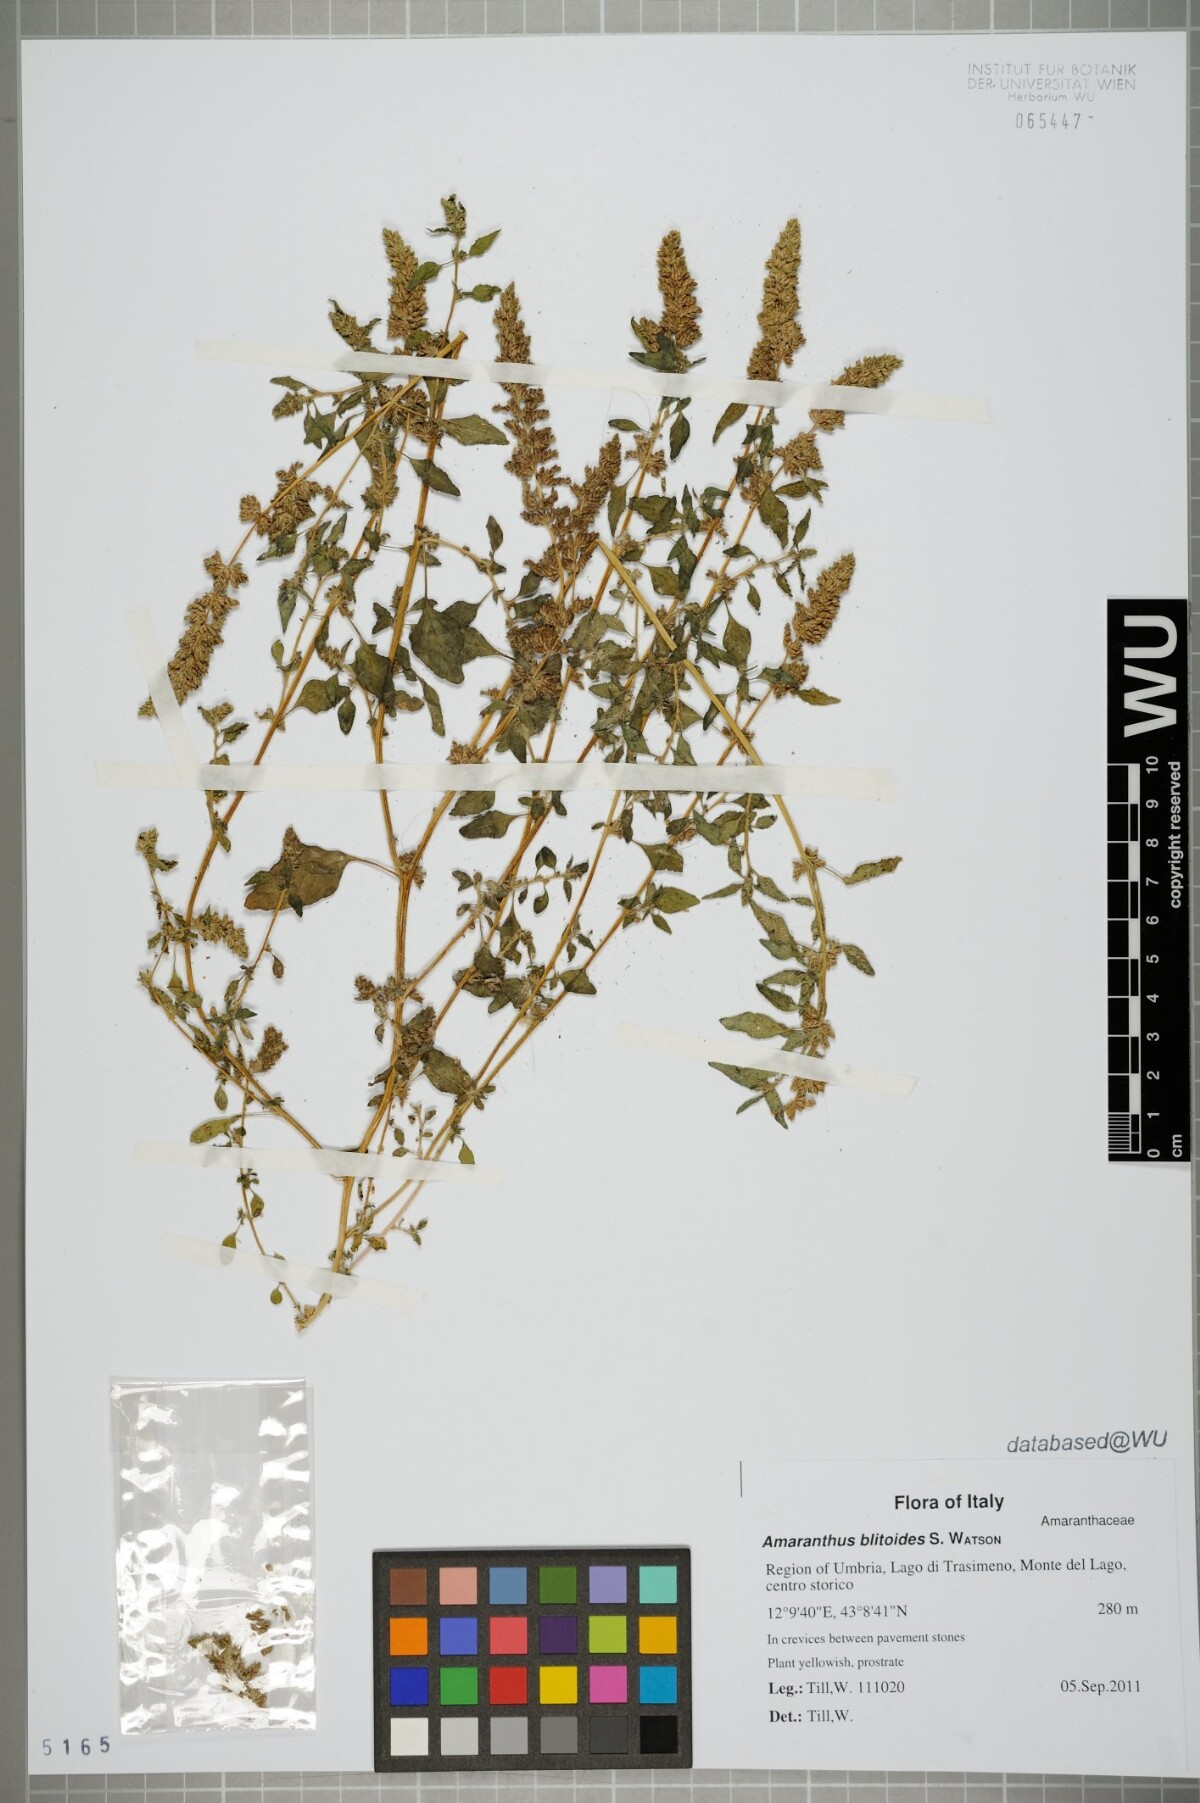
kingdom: Plantae
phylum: Tracheophyta
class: Magnoliopsida
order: Caryophyllales
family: Amaranthaceae
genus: Amaranthus
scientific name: Amaranthus deflexus
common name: Perennial pigweed
